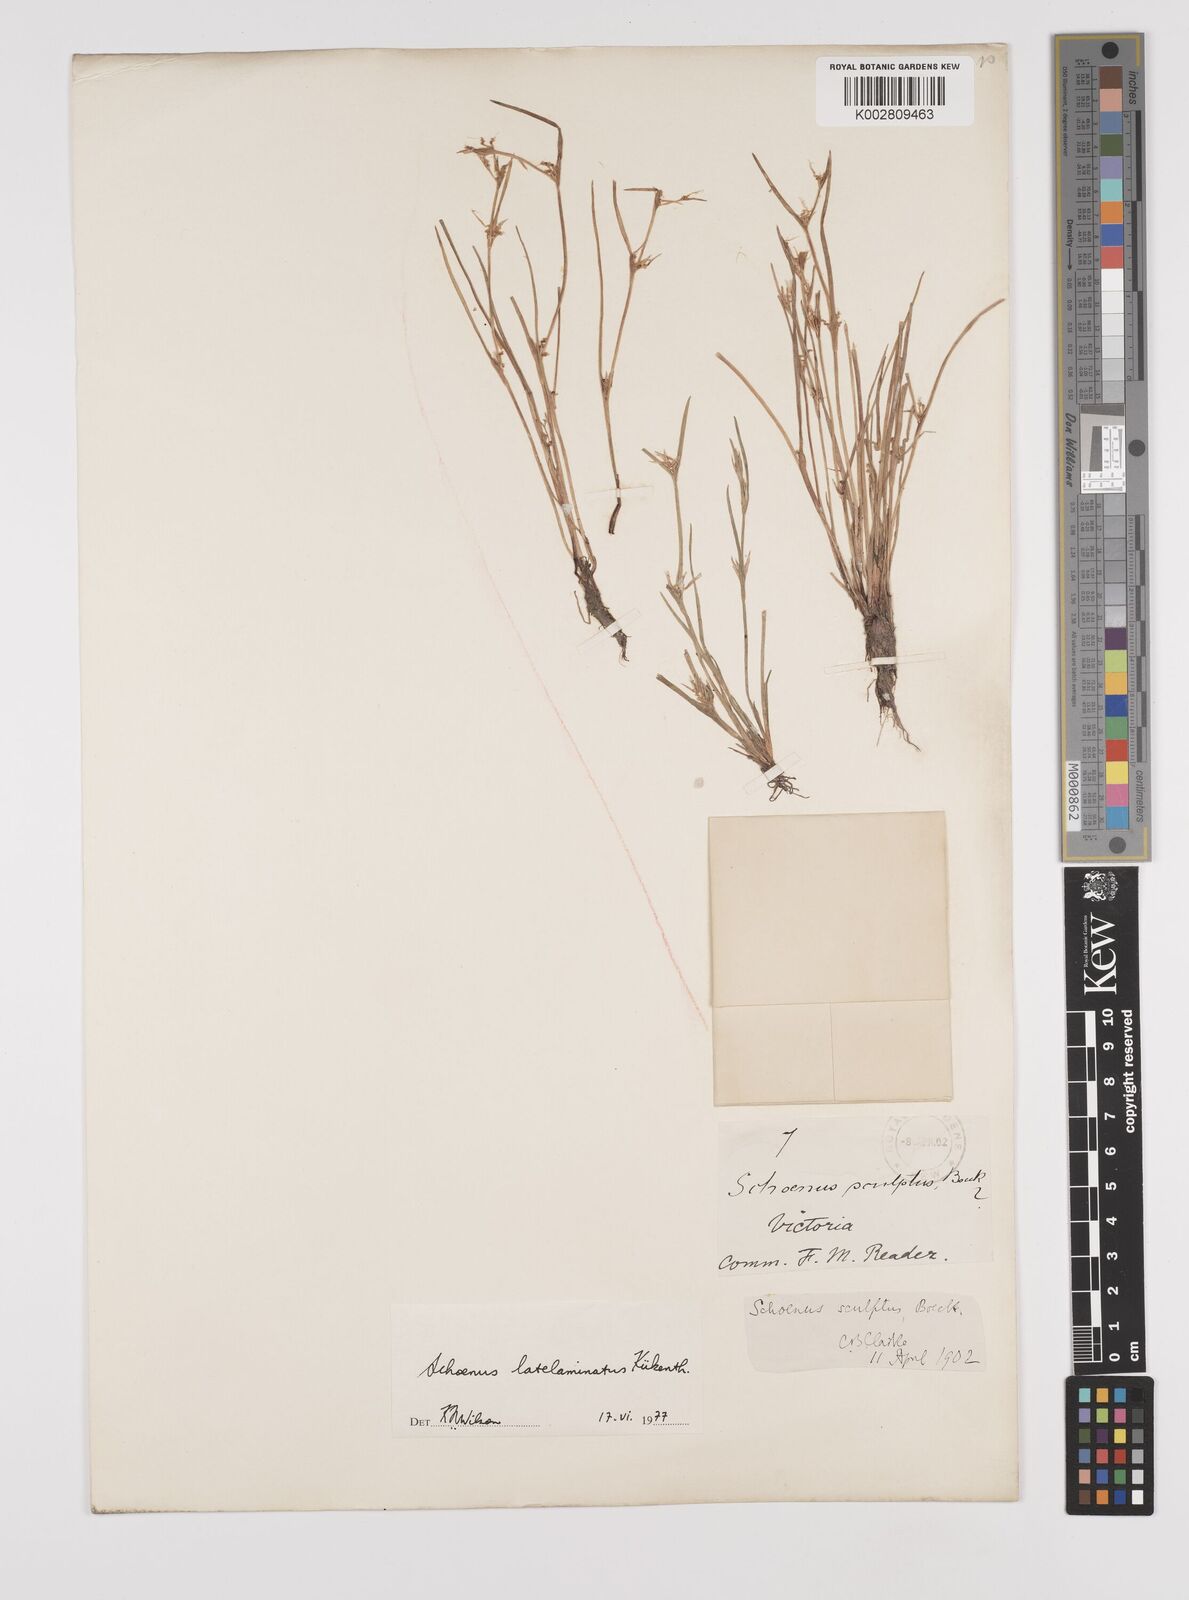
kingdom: Plantae
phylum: Tracheophyta
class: Liliopsida
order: Poales
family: Cyperaceae
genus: Schoenus
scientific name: Schoenus latelaminatus
